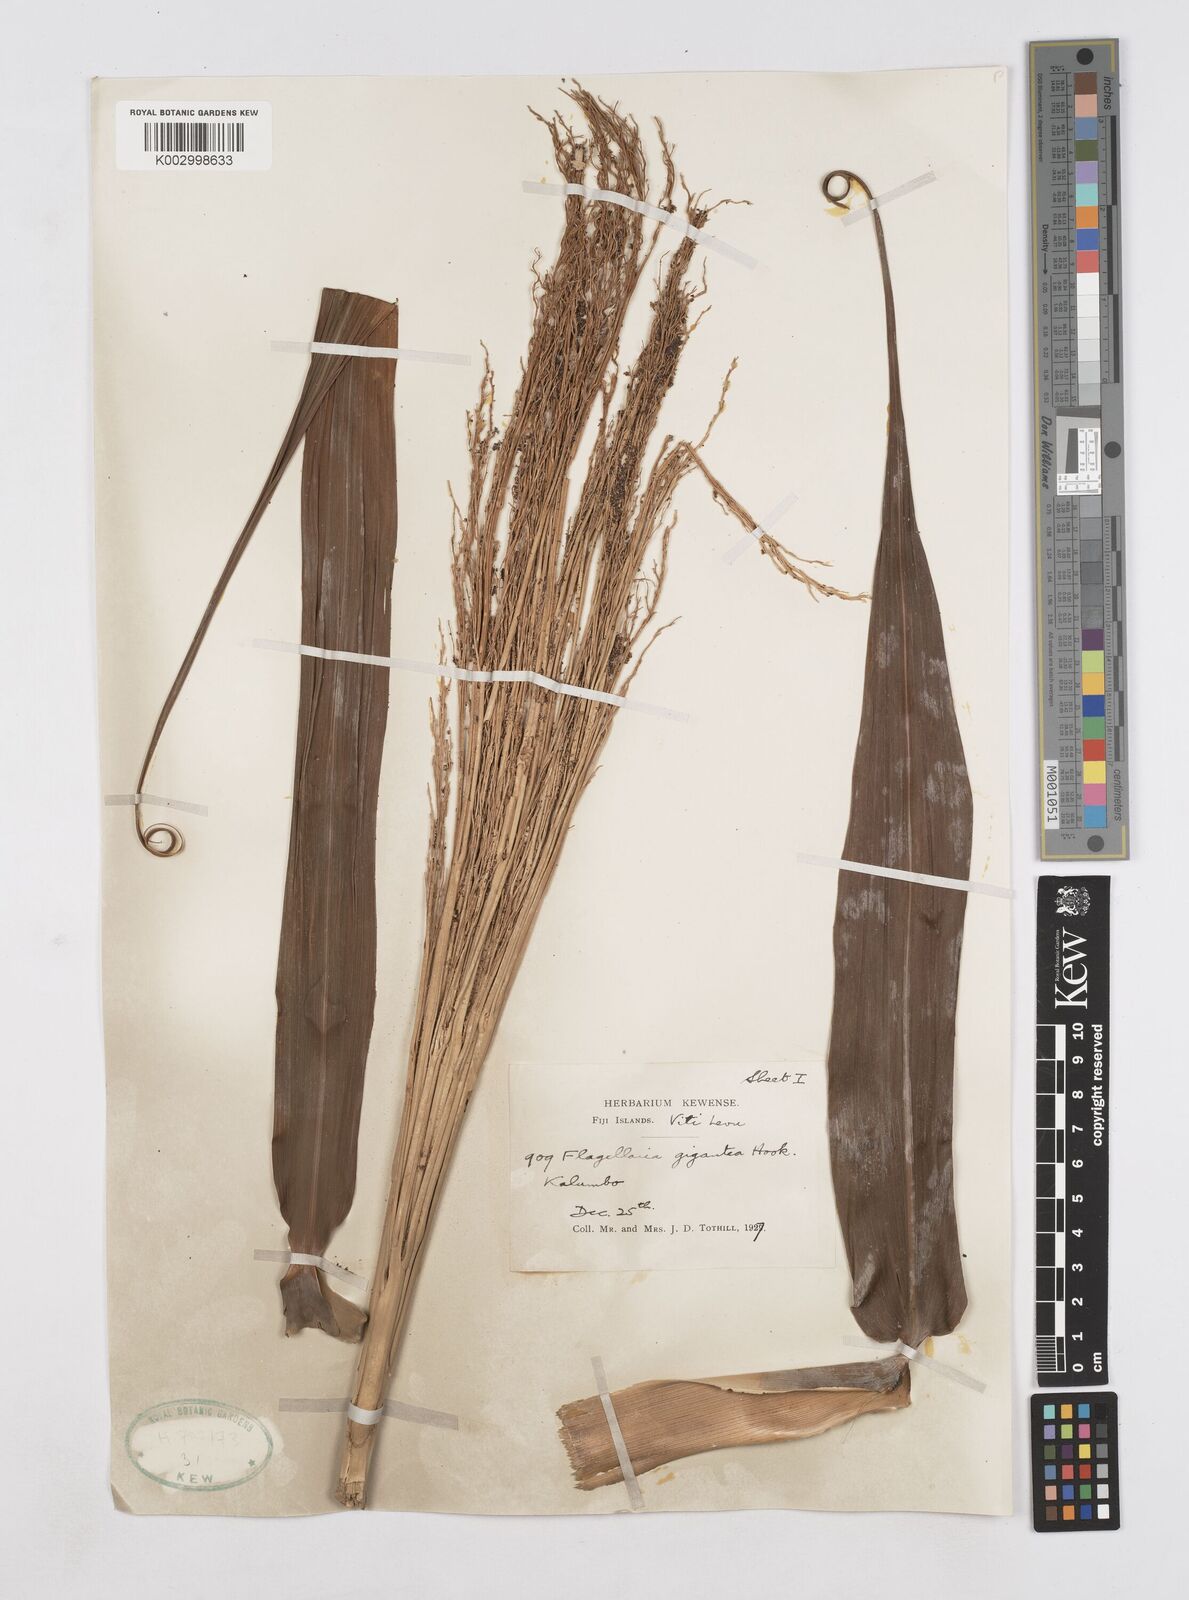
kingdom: Plantae
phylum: Tracheophyta
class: Liliopsida
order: Poales
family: Flagellariaceae
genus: Flagellaria
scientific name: Flagellaria gigantea
